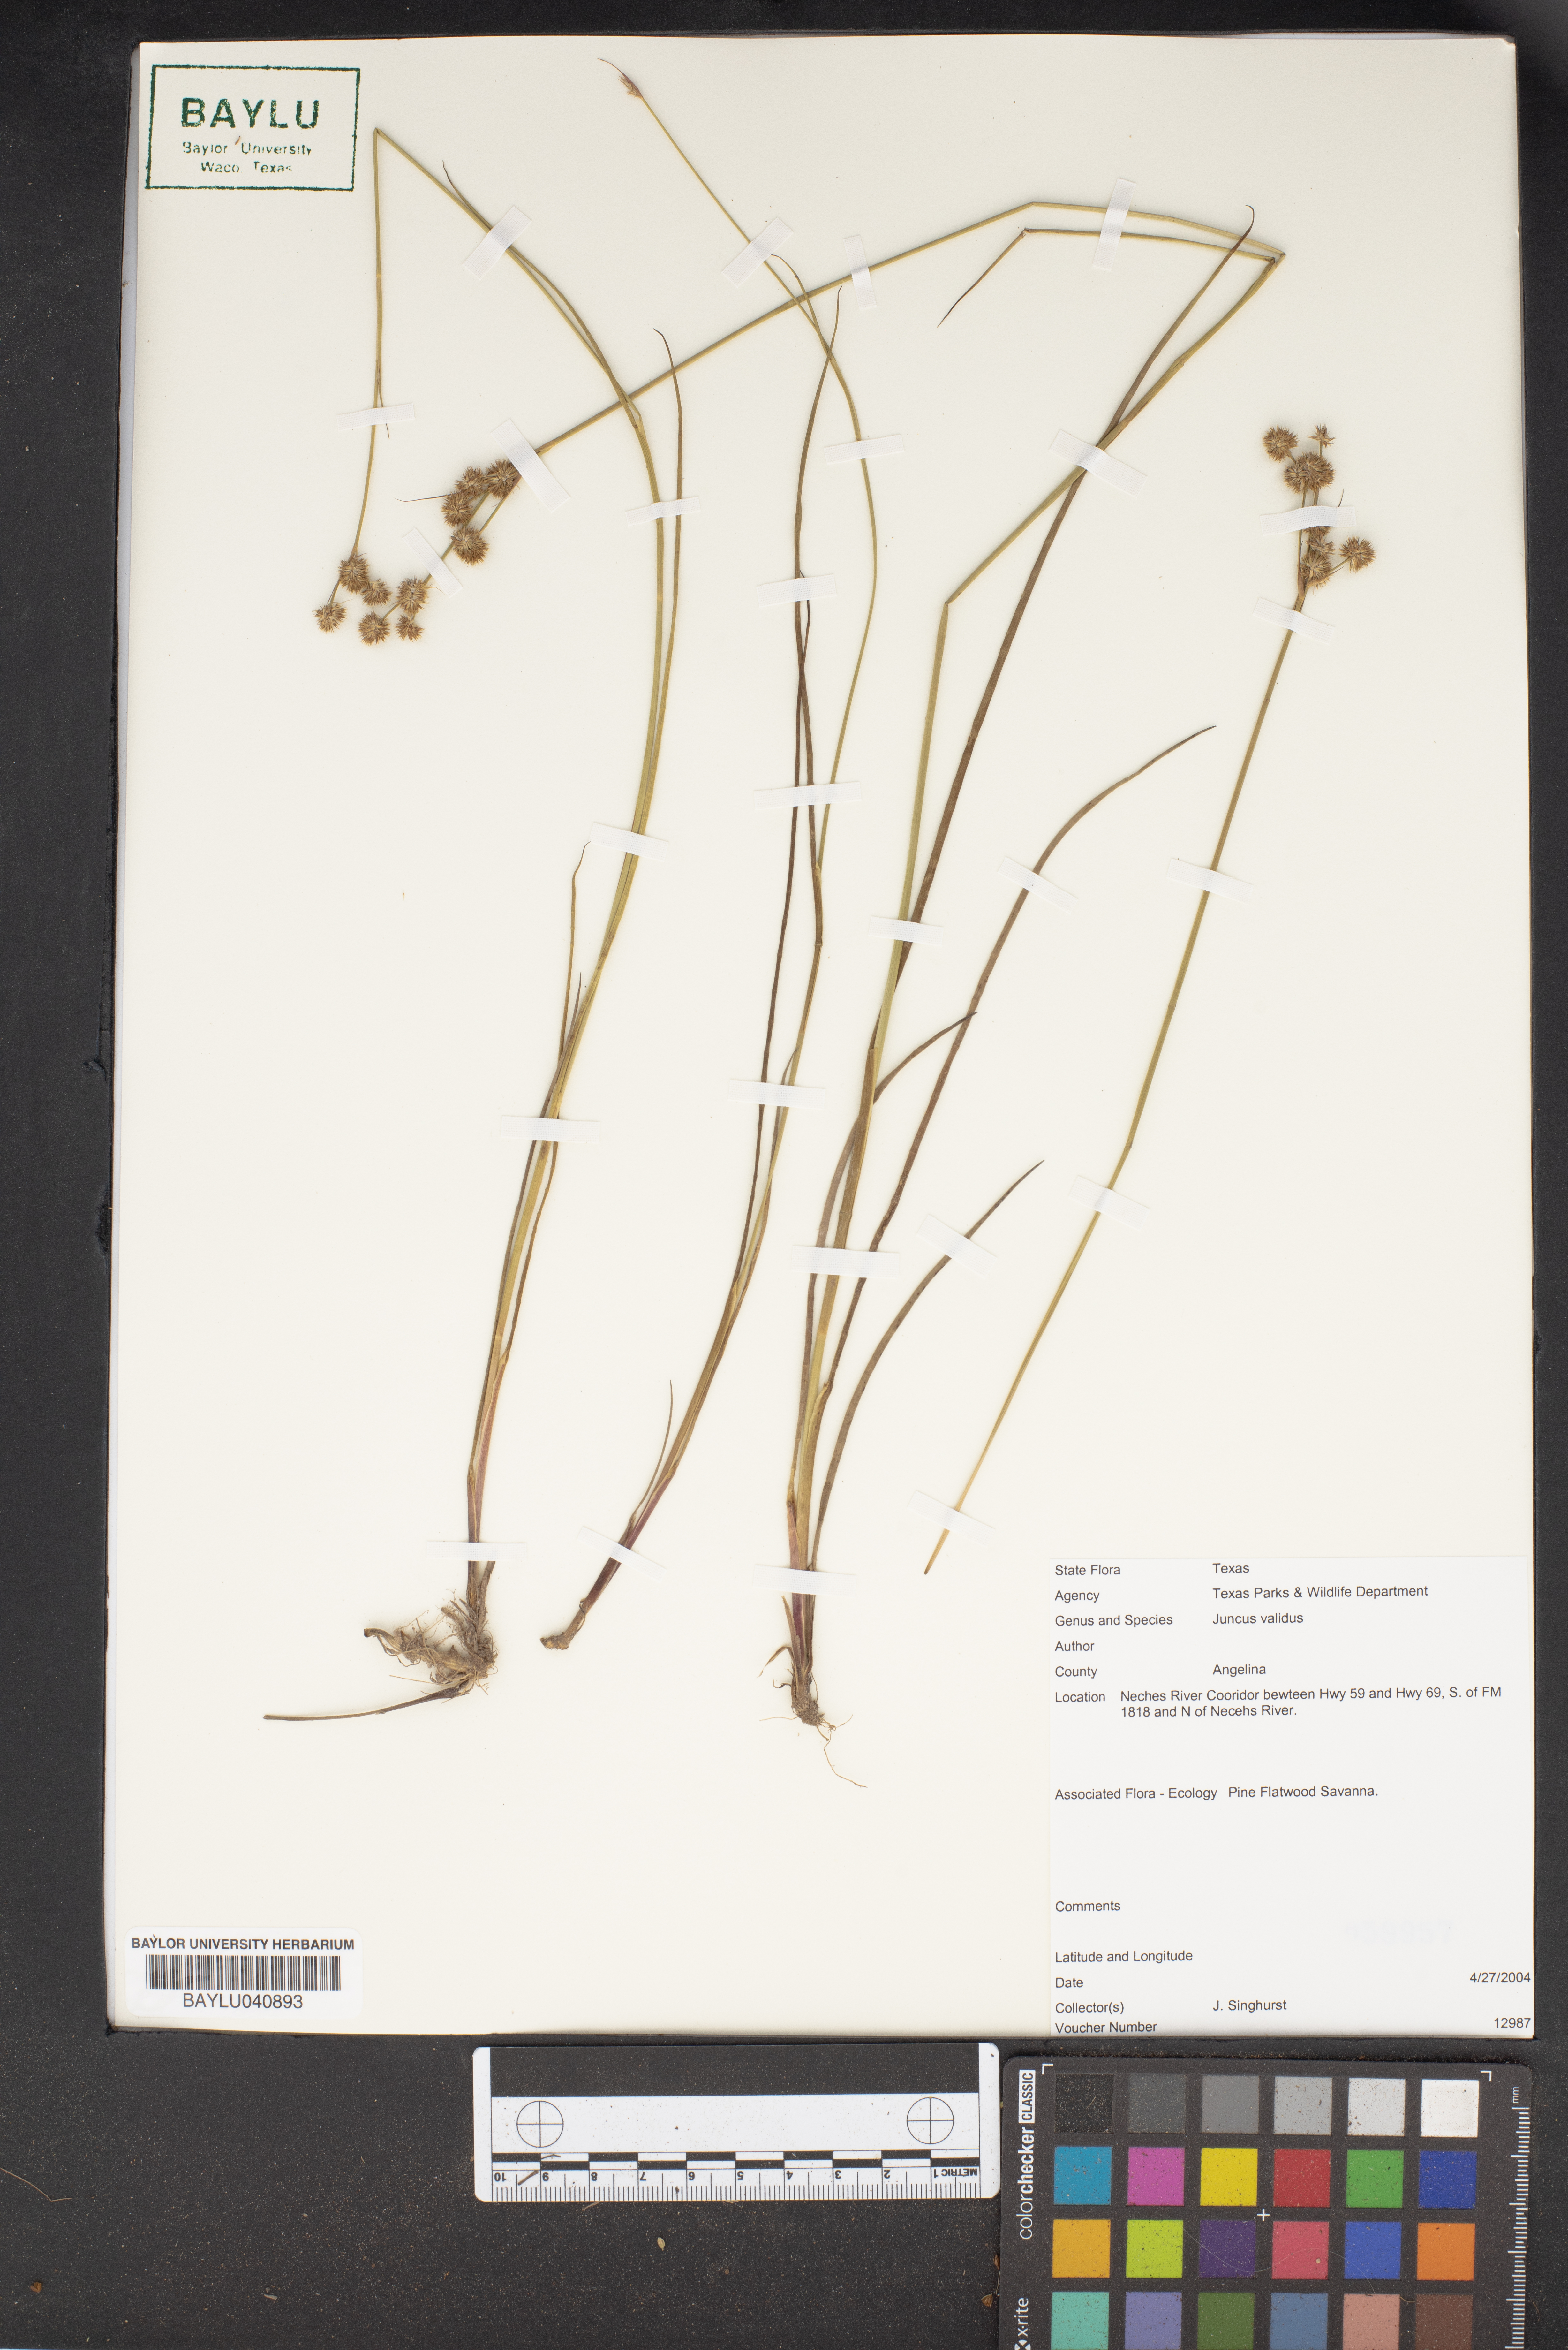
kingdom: Plantae
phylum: Tracheophyta
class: Liliopsida
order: Poales
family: Juncaceae
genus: Juncus
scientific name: Juncus validus
